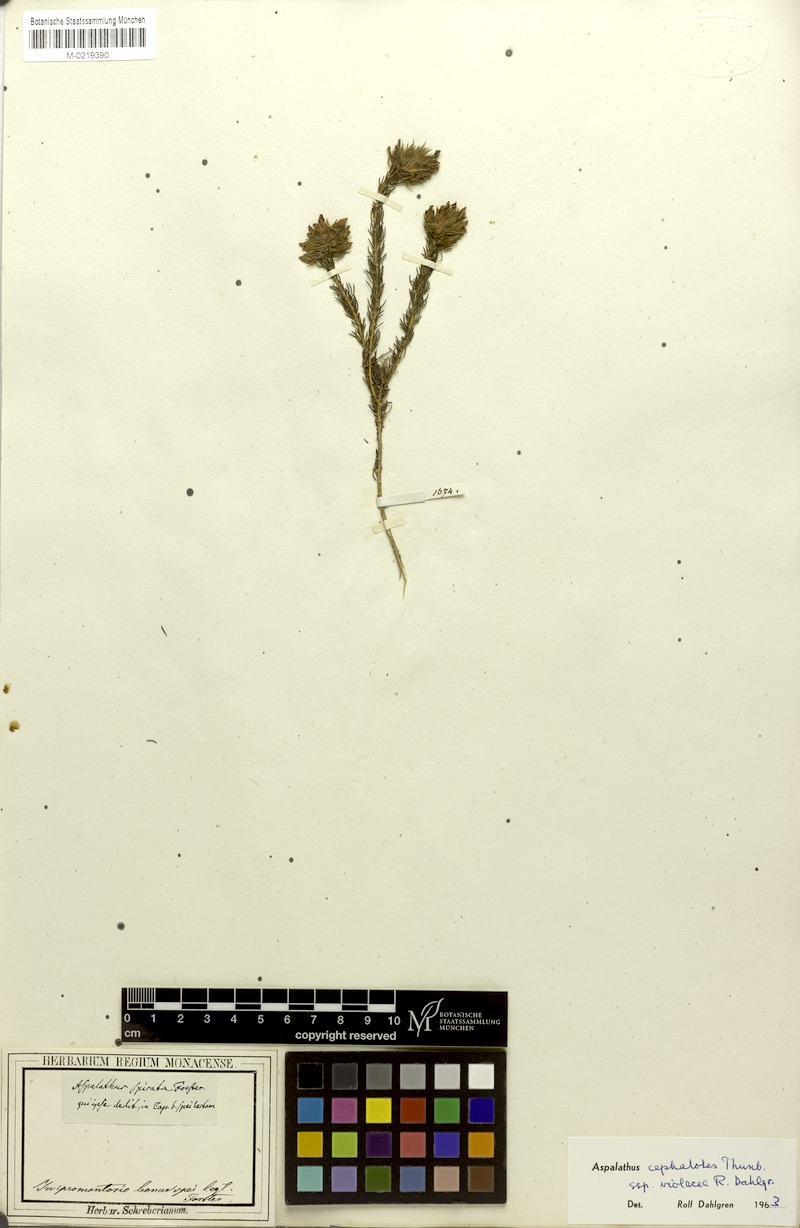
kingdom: Plantae
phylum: Tracheophyta
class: Magnoliopsida
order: Fabales
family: Fabaceae
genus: Aspalathus
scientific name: Aspalathus cephalotes
